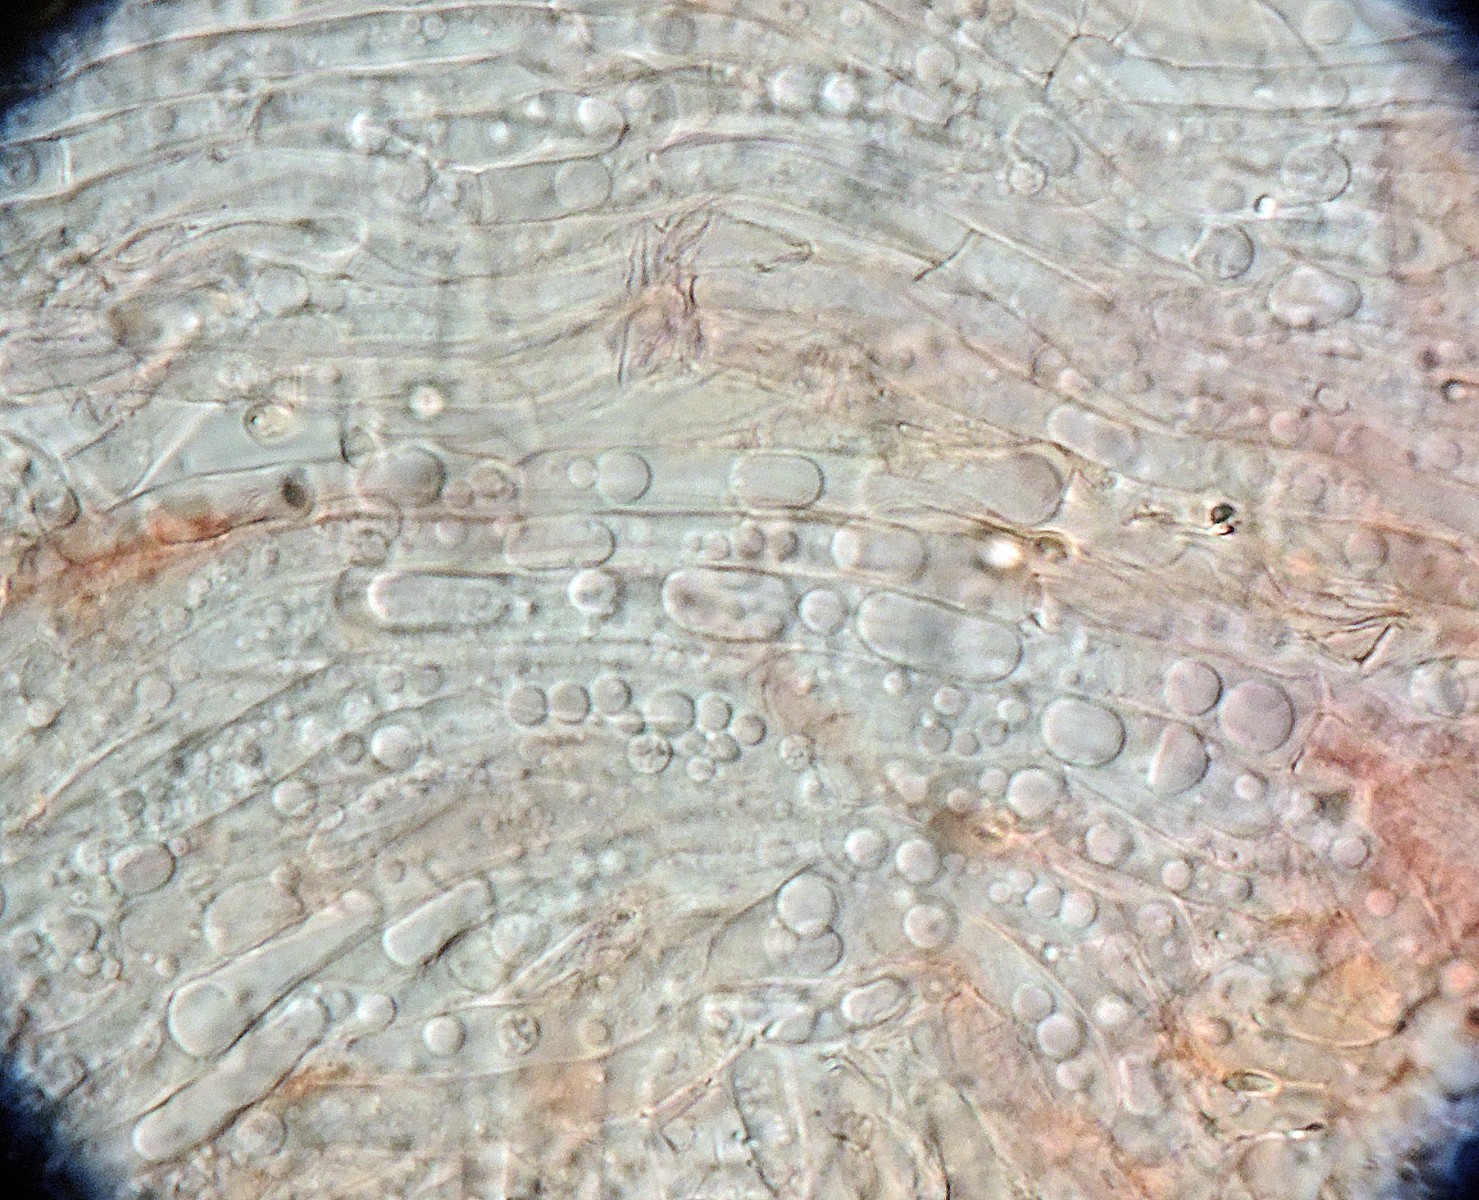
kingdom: Fungi
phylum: Basidiomycota
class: Agaricomycetes
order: Agaricales
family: Hygrophoraceae
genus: Arrhenia
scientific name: Arrhenia retiruga
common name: lille fontænehat
